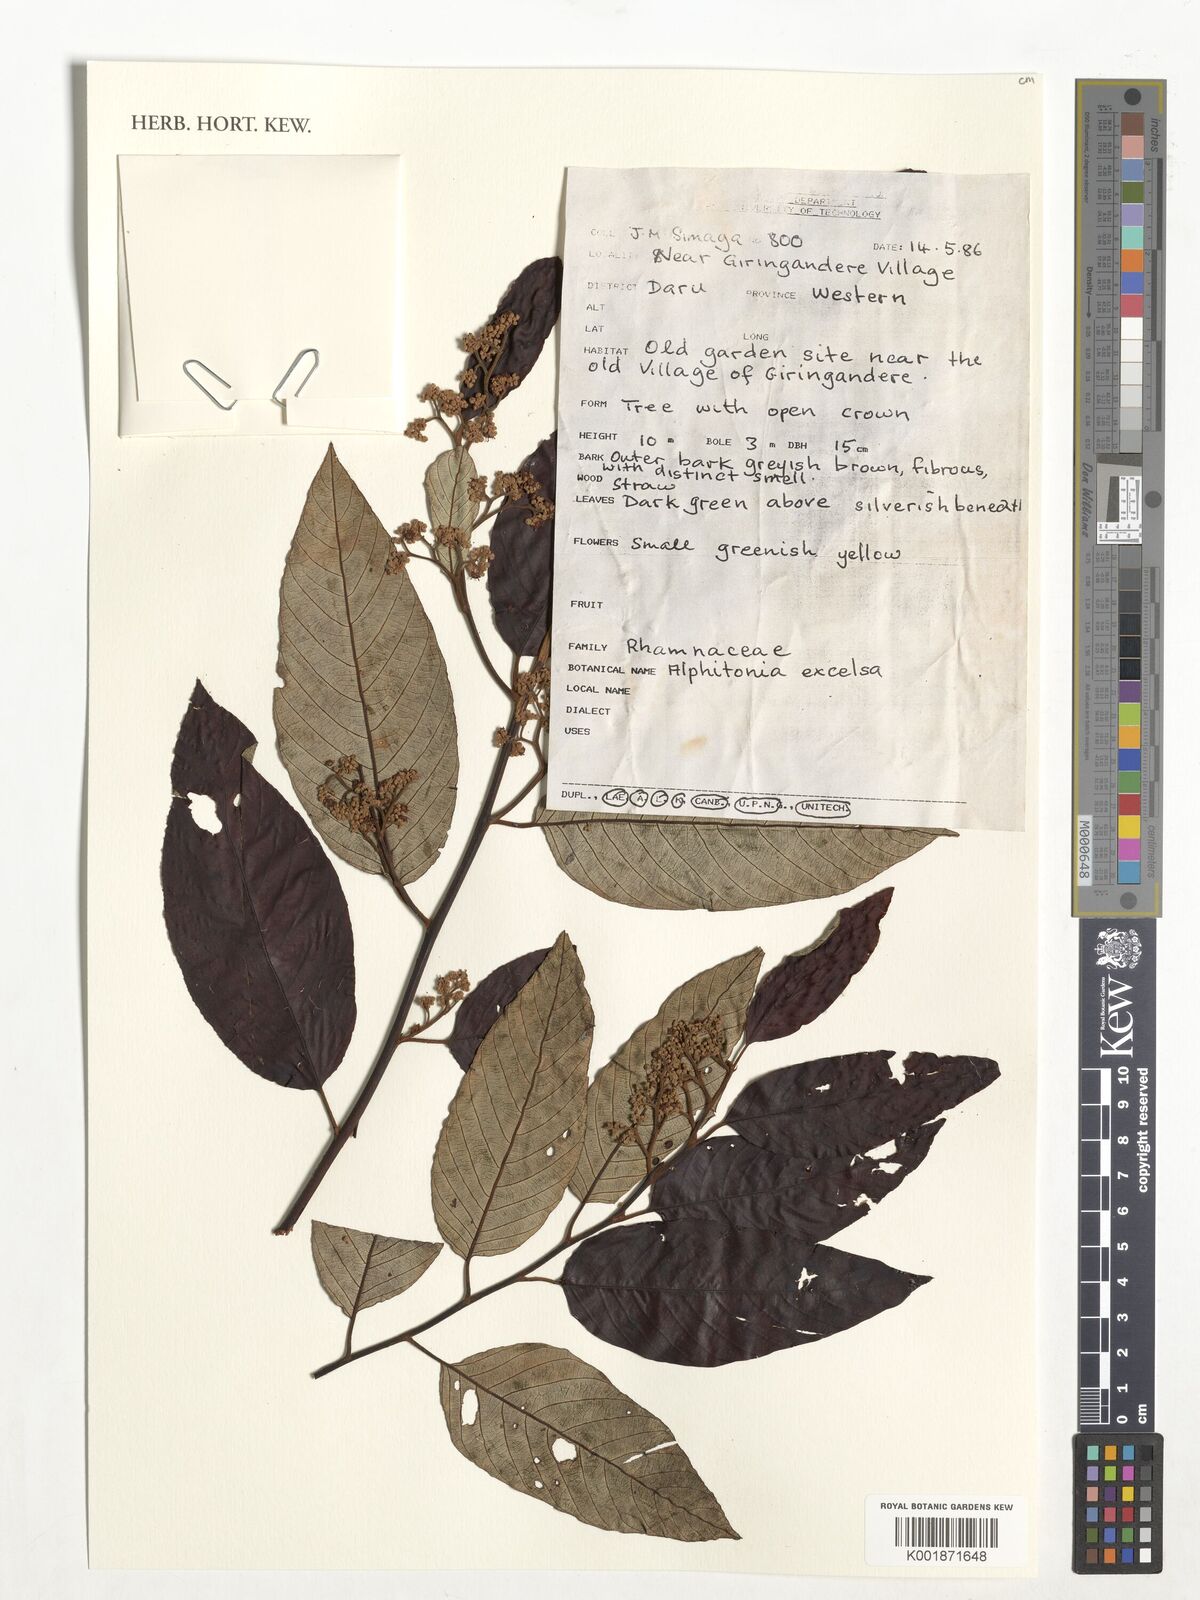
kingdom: Plantae
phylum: Tracheophyta
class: Magnoliopsida
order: Rosales
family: Rhamnaceae
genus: Alphitonia
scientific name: Alphitonia excelsa
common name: Red ash
